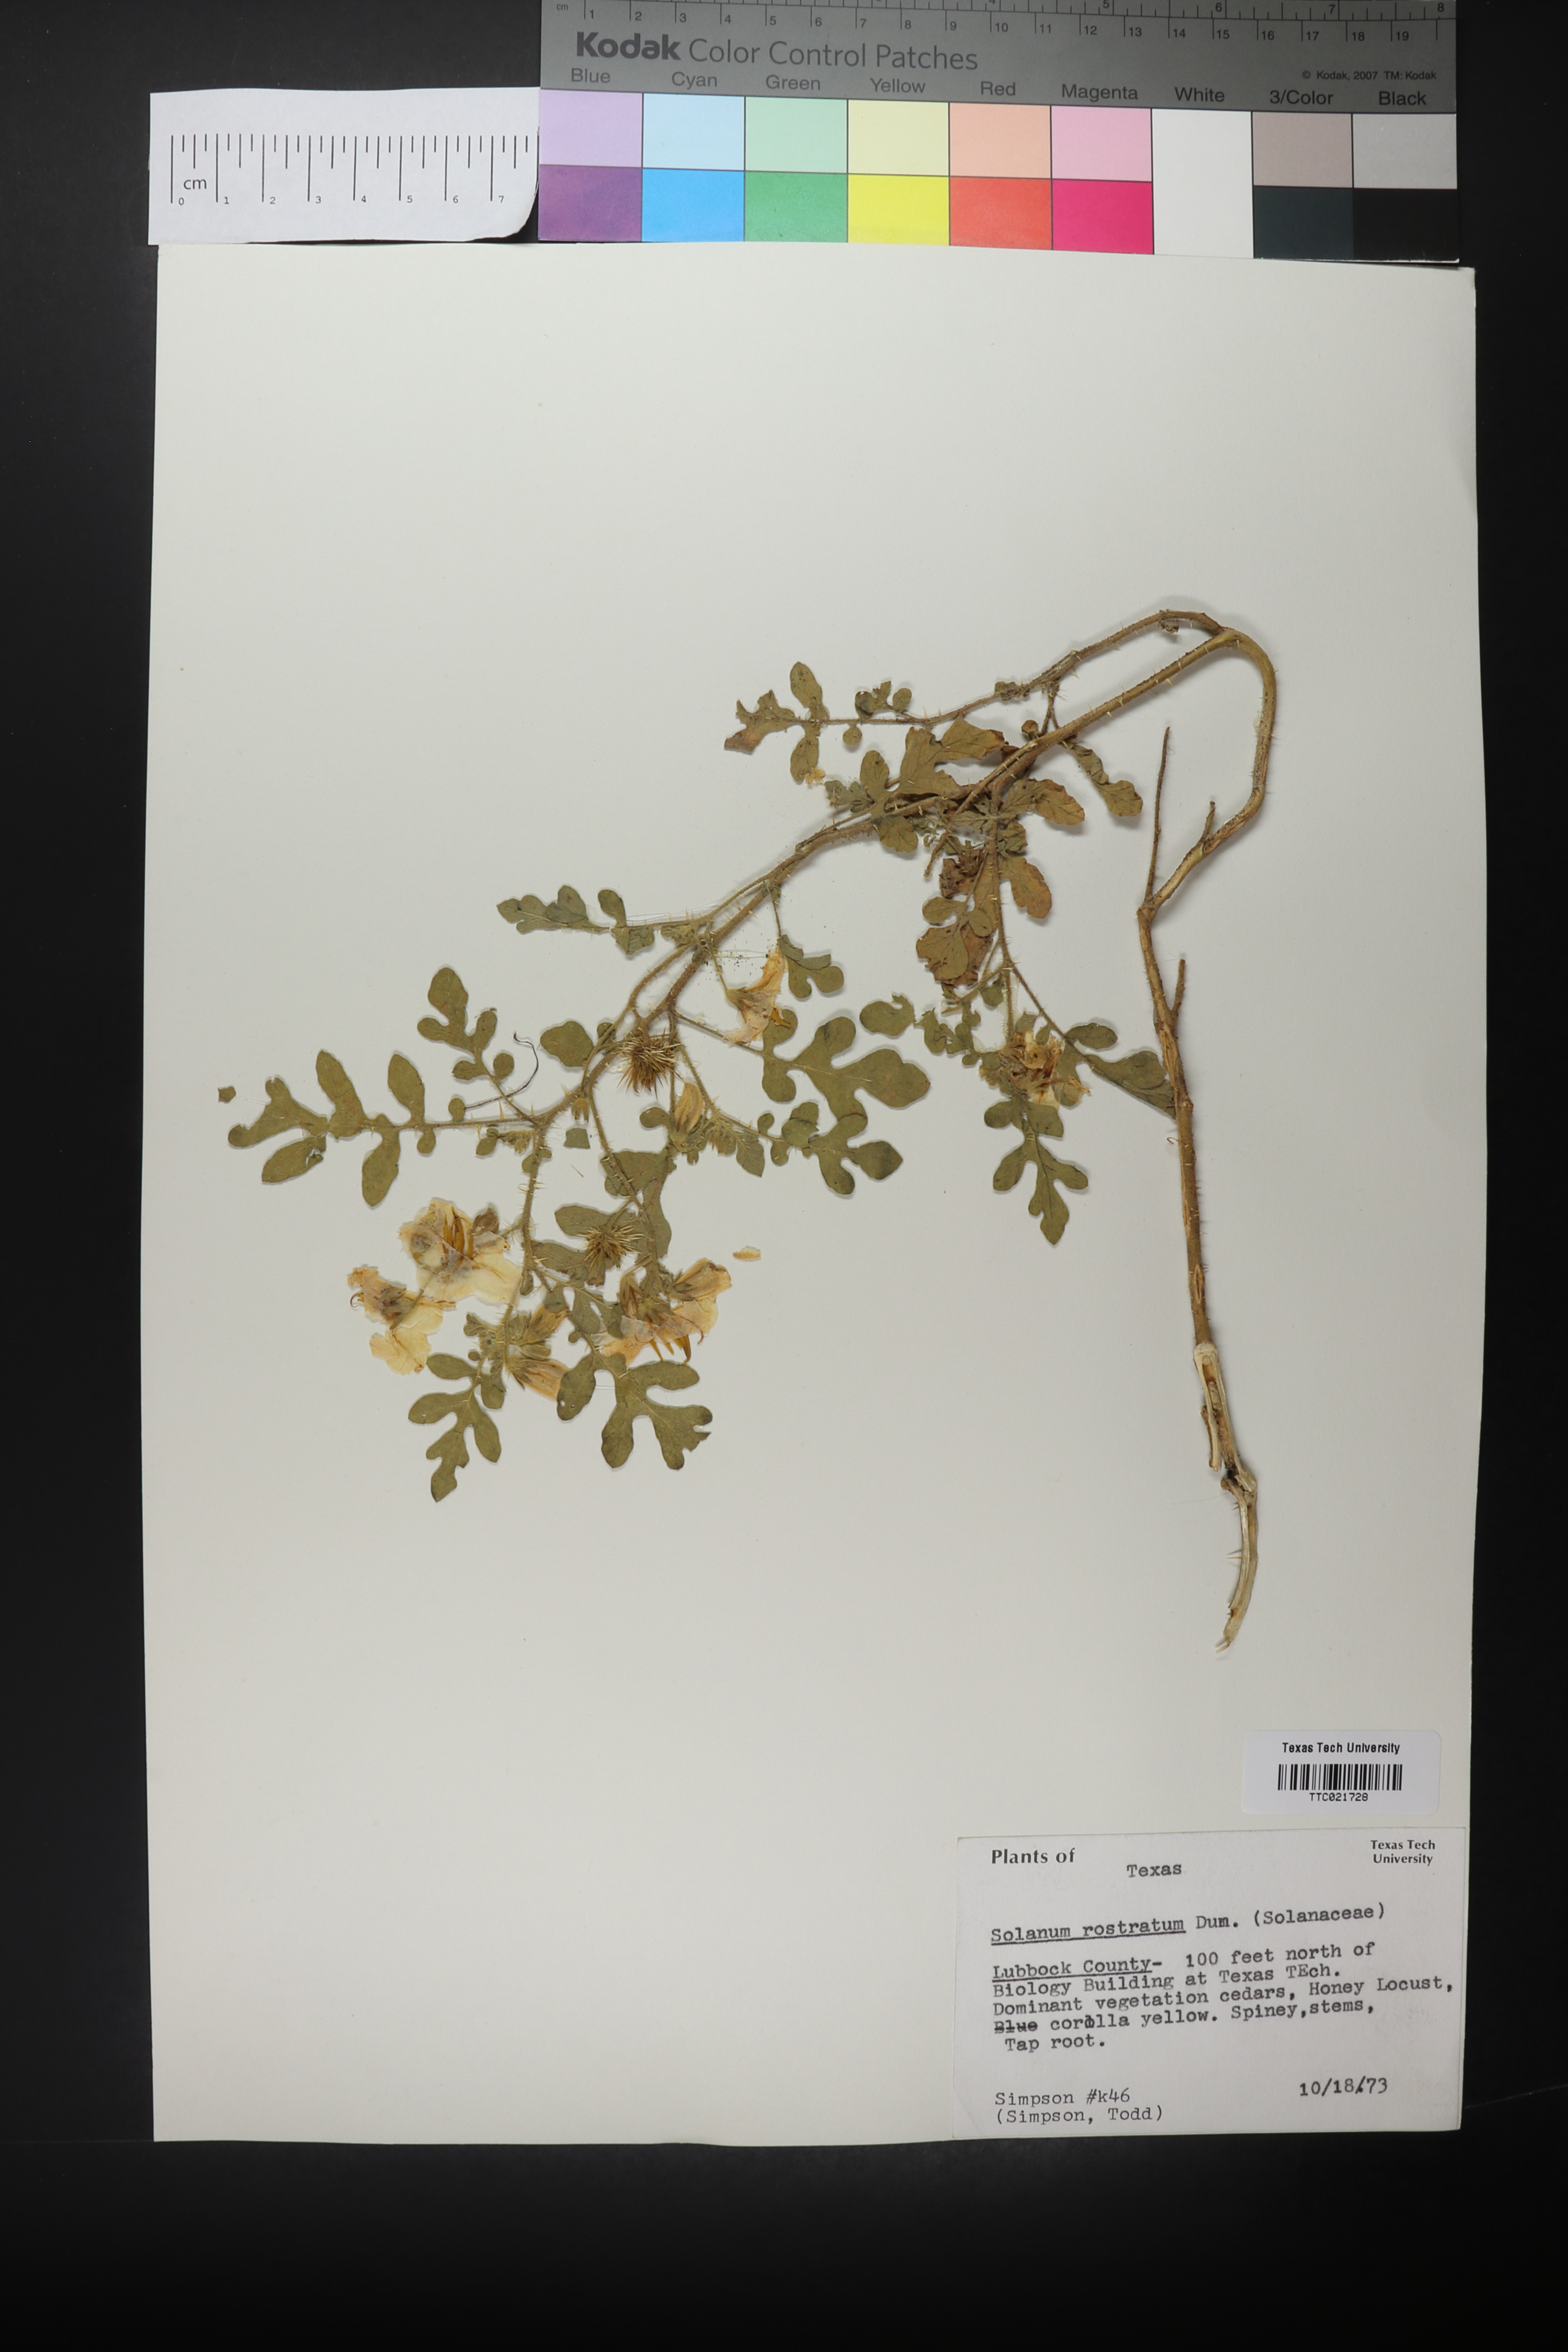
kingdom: Plantae
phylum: Tracheophyta
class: Magnoliopsida
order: Solanales
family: Solanaceae
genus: Solanum
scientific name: Solanum angustifolium
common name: Buffalobur nightshade
